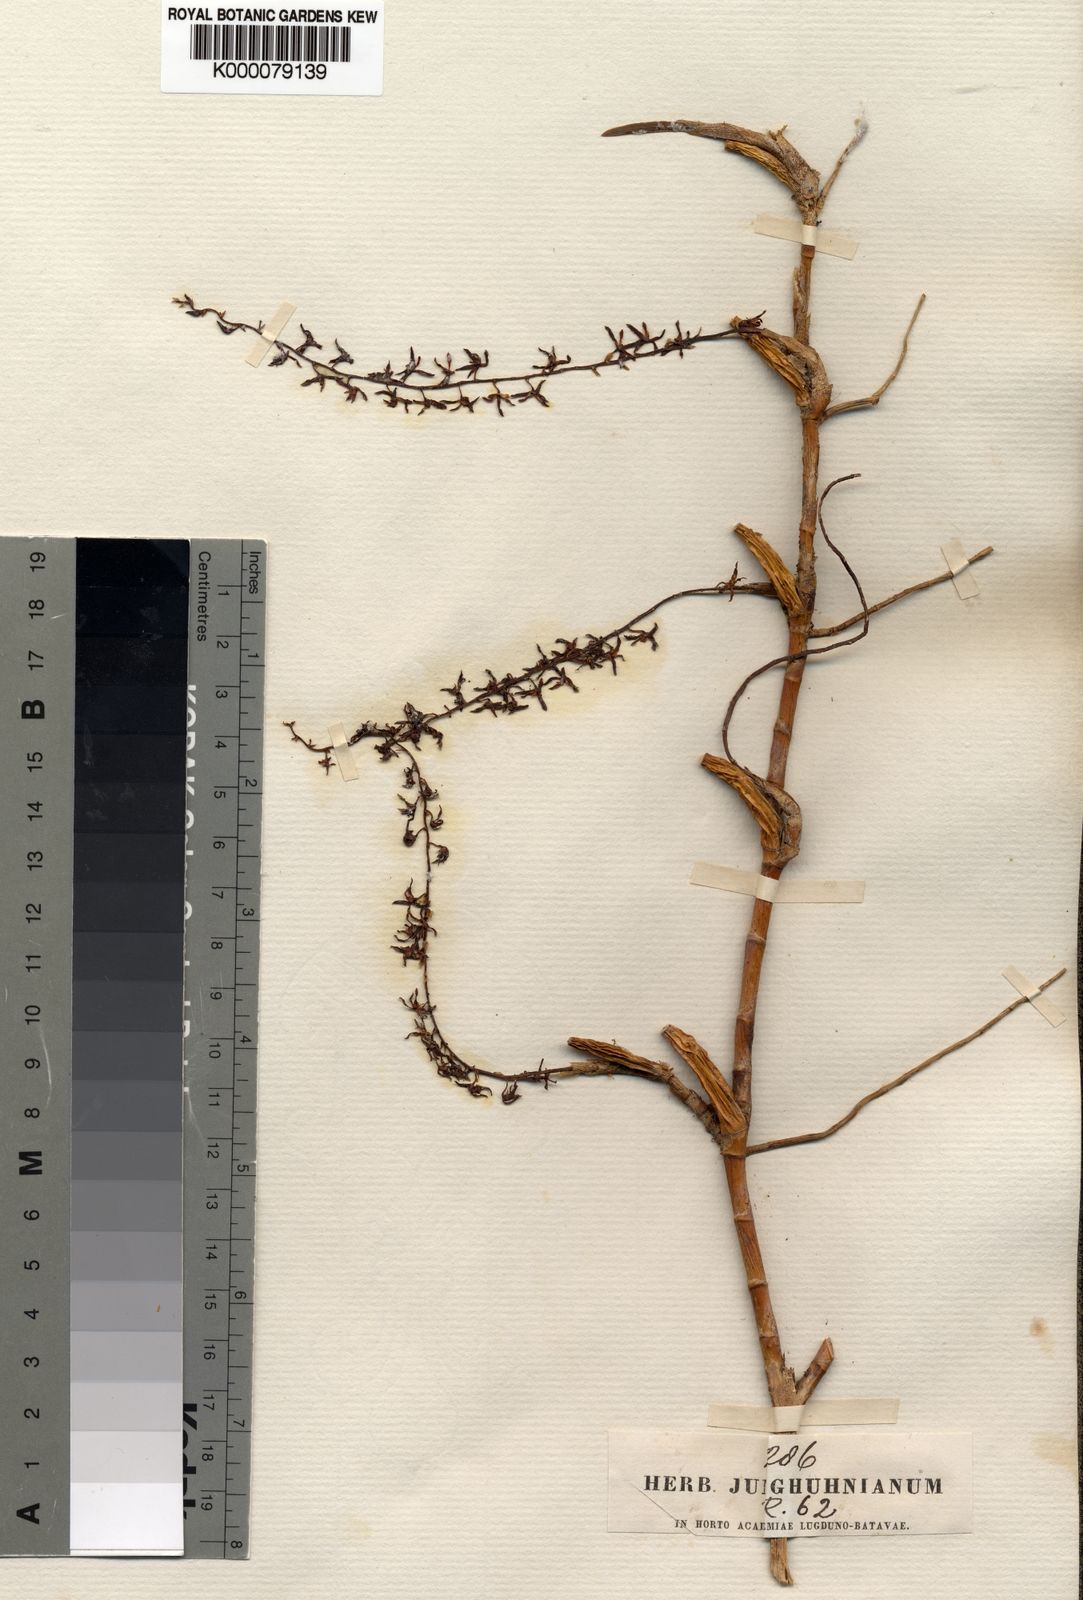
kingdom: Plantae
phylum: Tracheophyta
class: Liliopsida
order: Asparagales
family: Orchidaceae
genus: Coelogyne
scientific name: Coelogyne pallidiflavens
